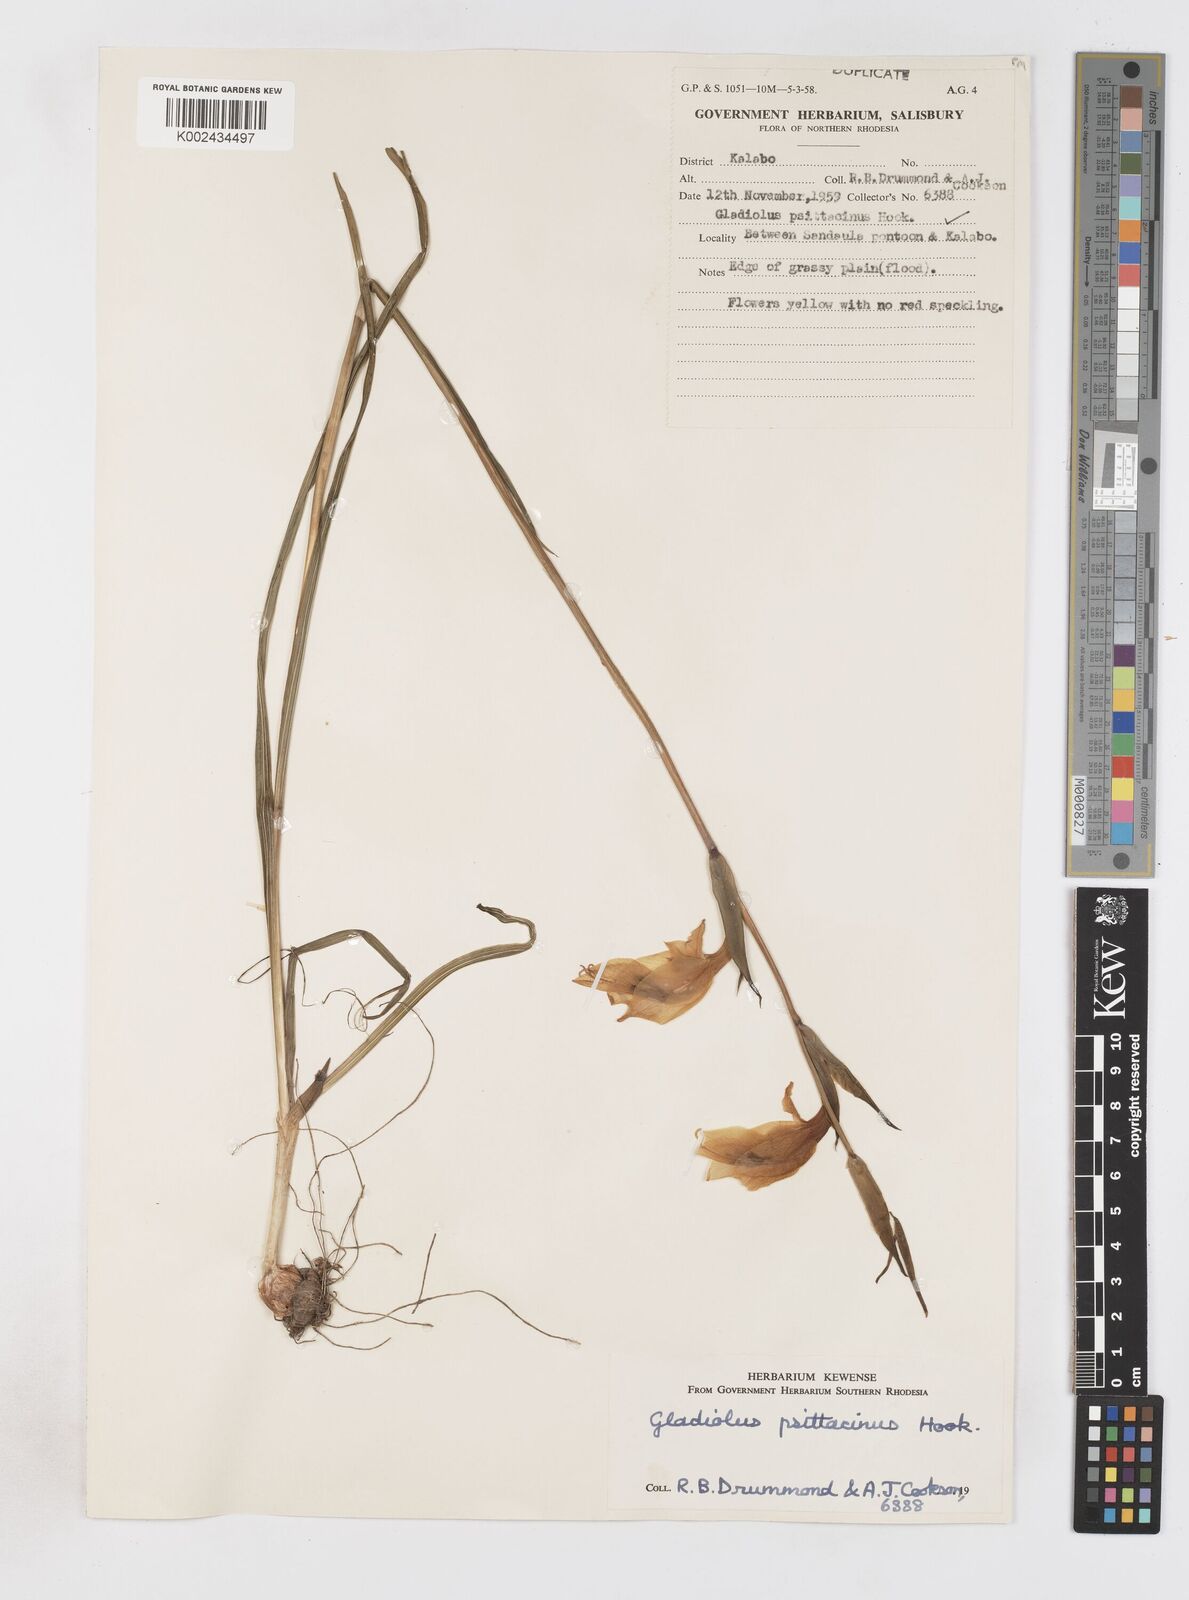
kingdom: Plantae
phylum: Tracheophyta
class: Liliopsida
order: Asparagales
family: Iridaceae
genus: Gladiolus
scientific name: Gladiolus dalenii
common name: Cornflag
